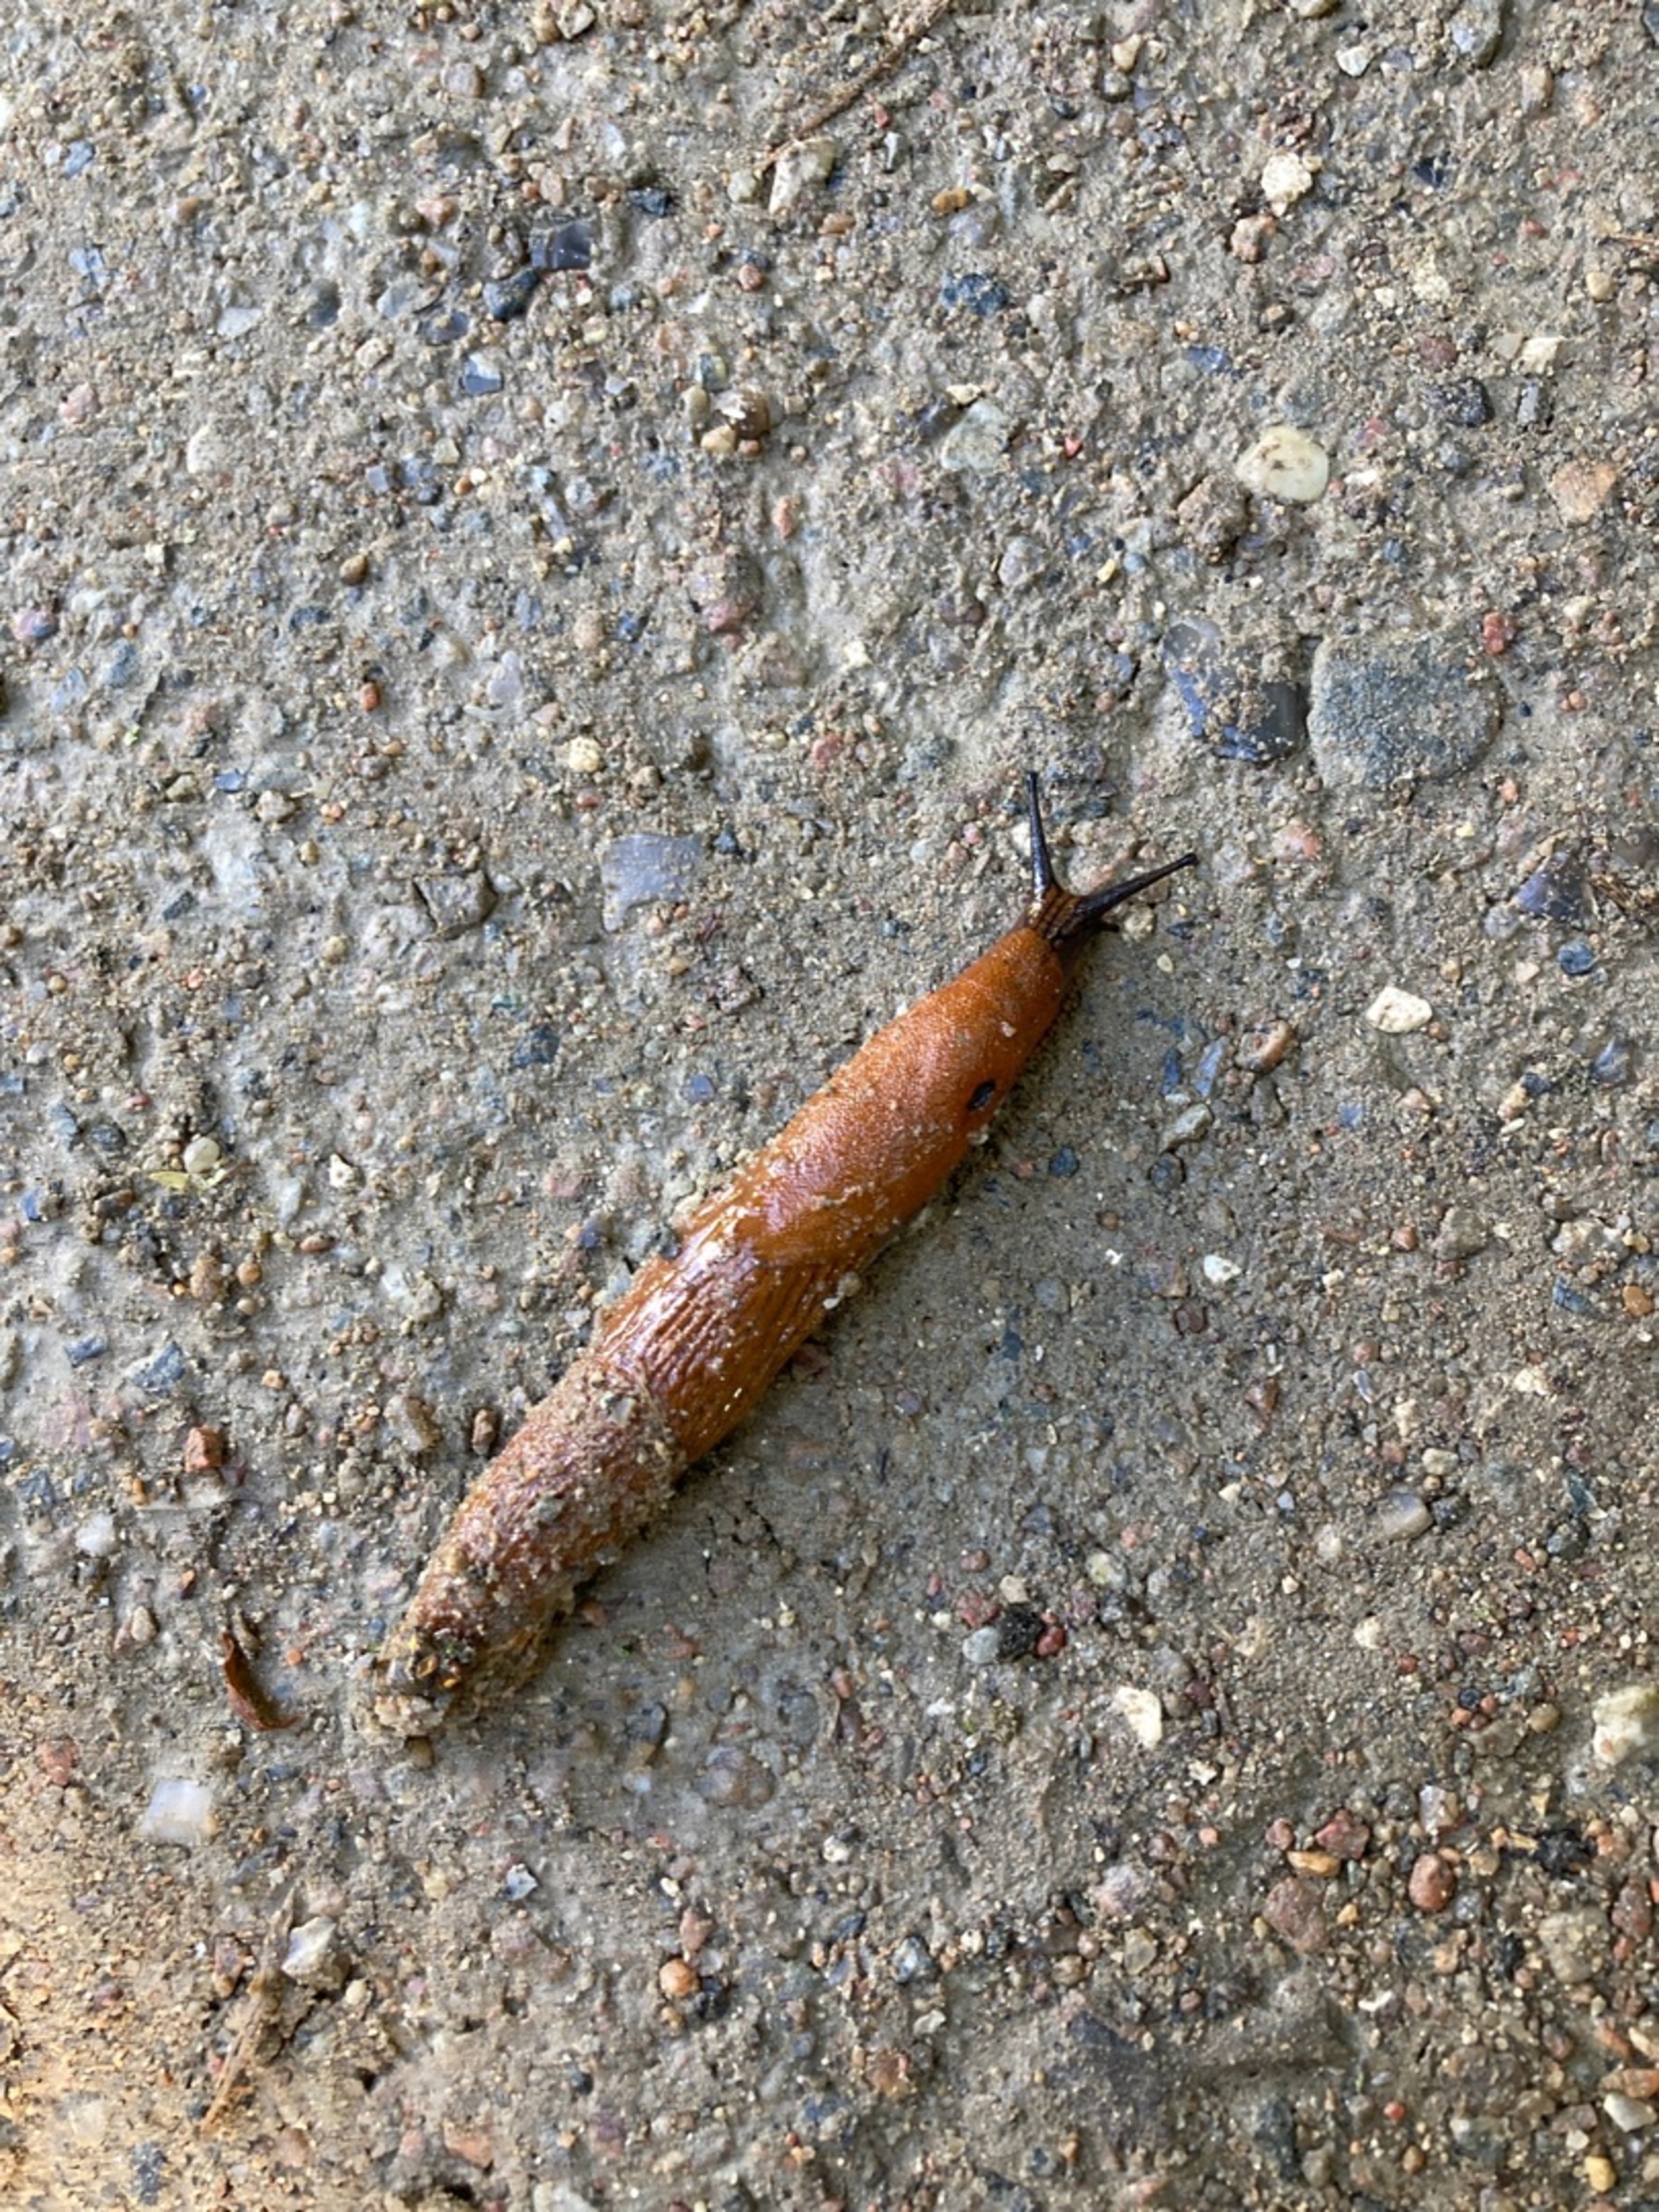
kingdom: Animalia
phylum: Mollusca
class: Gastropoda
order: Stylommatophora
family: Arionidae
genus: Arion
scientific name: Arion vulgaris
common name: Iberisk skovsnegl
